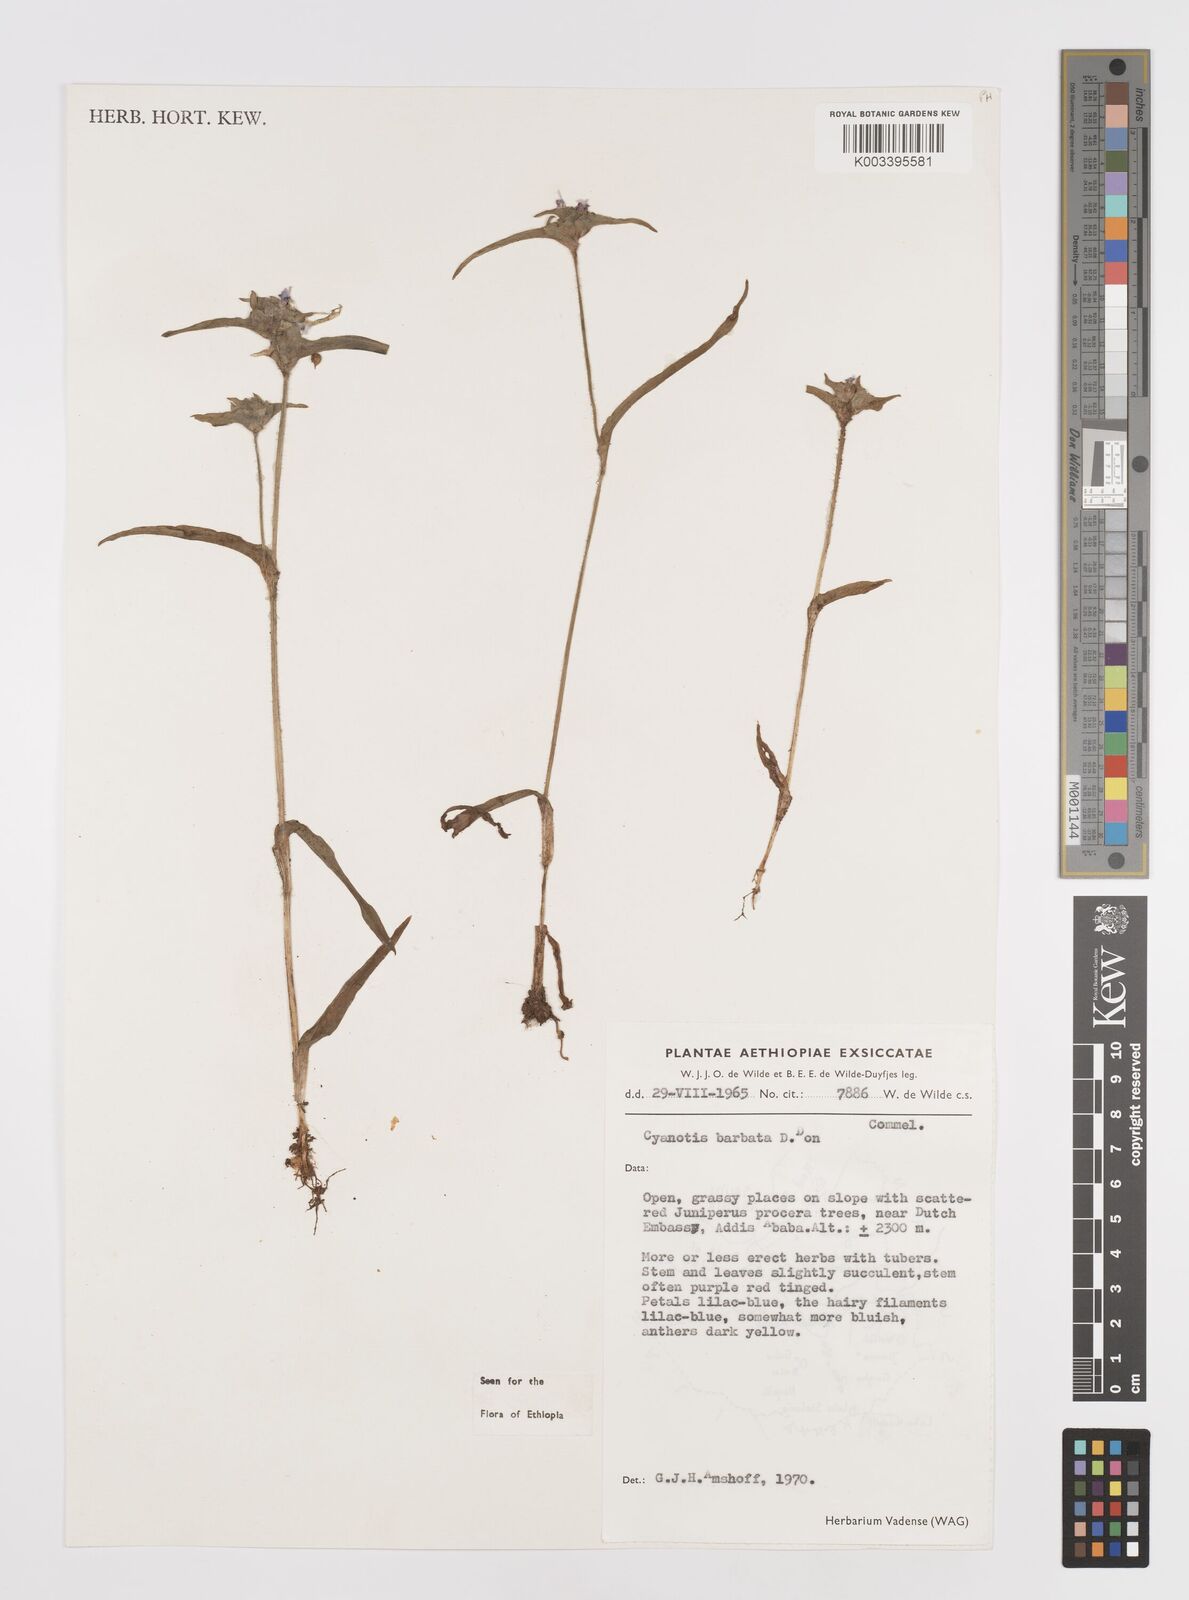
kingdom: Plantae
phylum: Tracheophyta
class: Liliopsida
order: Commelinales
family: Commelinaceae
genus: Cyanotis
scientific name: Cyanotis vaga
